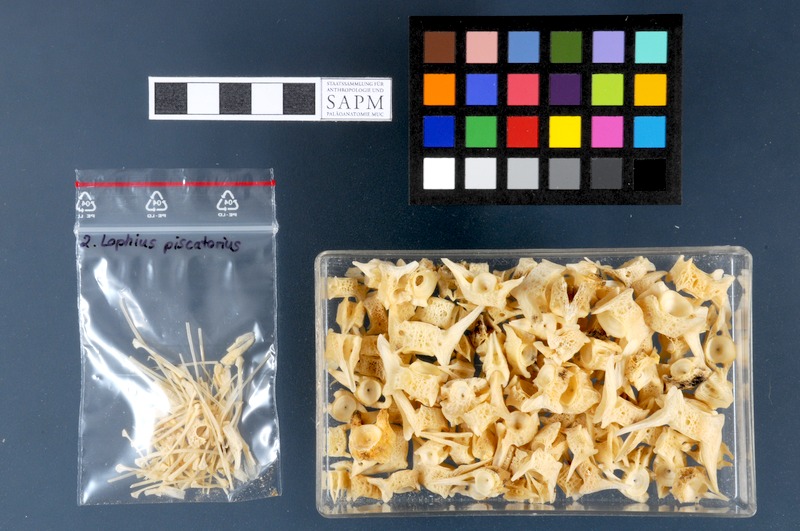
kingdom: Animalia
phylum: Chordata
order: Lophiiformes
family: Lophiidae
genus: Lophius
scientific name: Lophius piscatorius
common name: Angler
